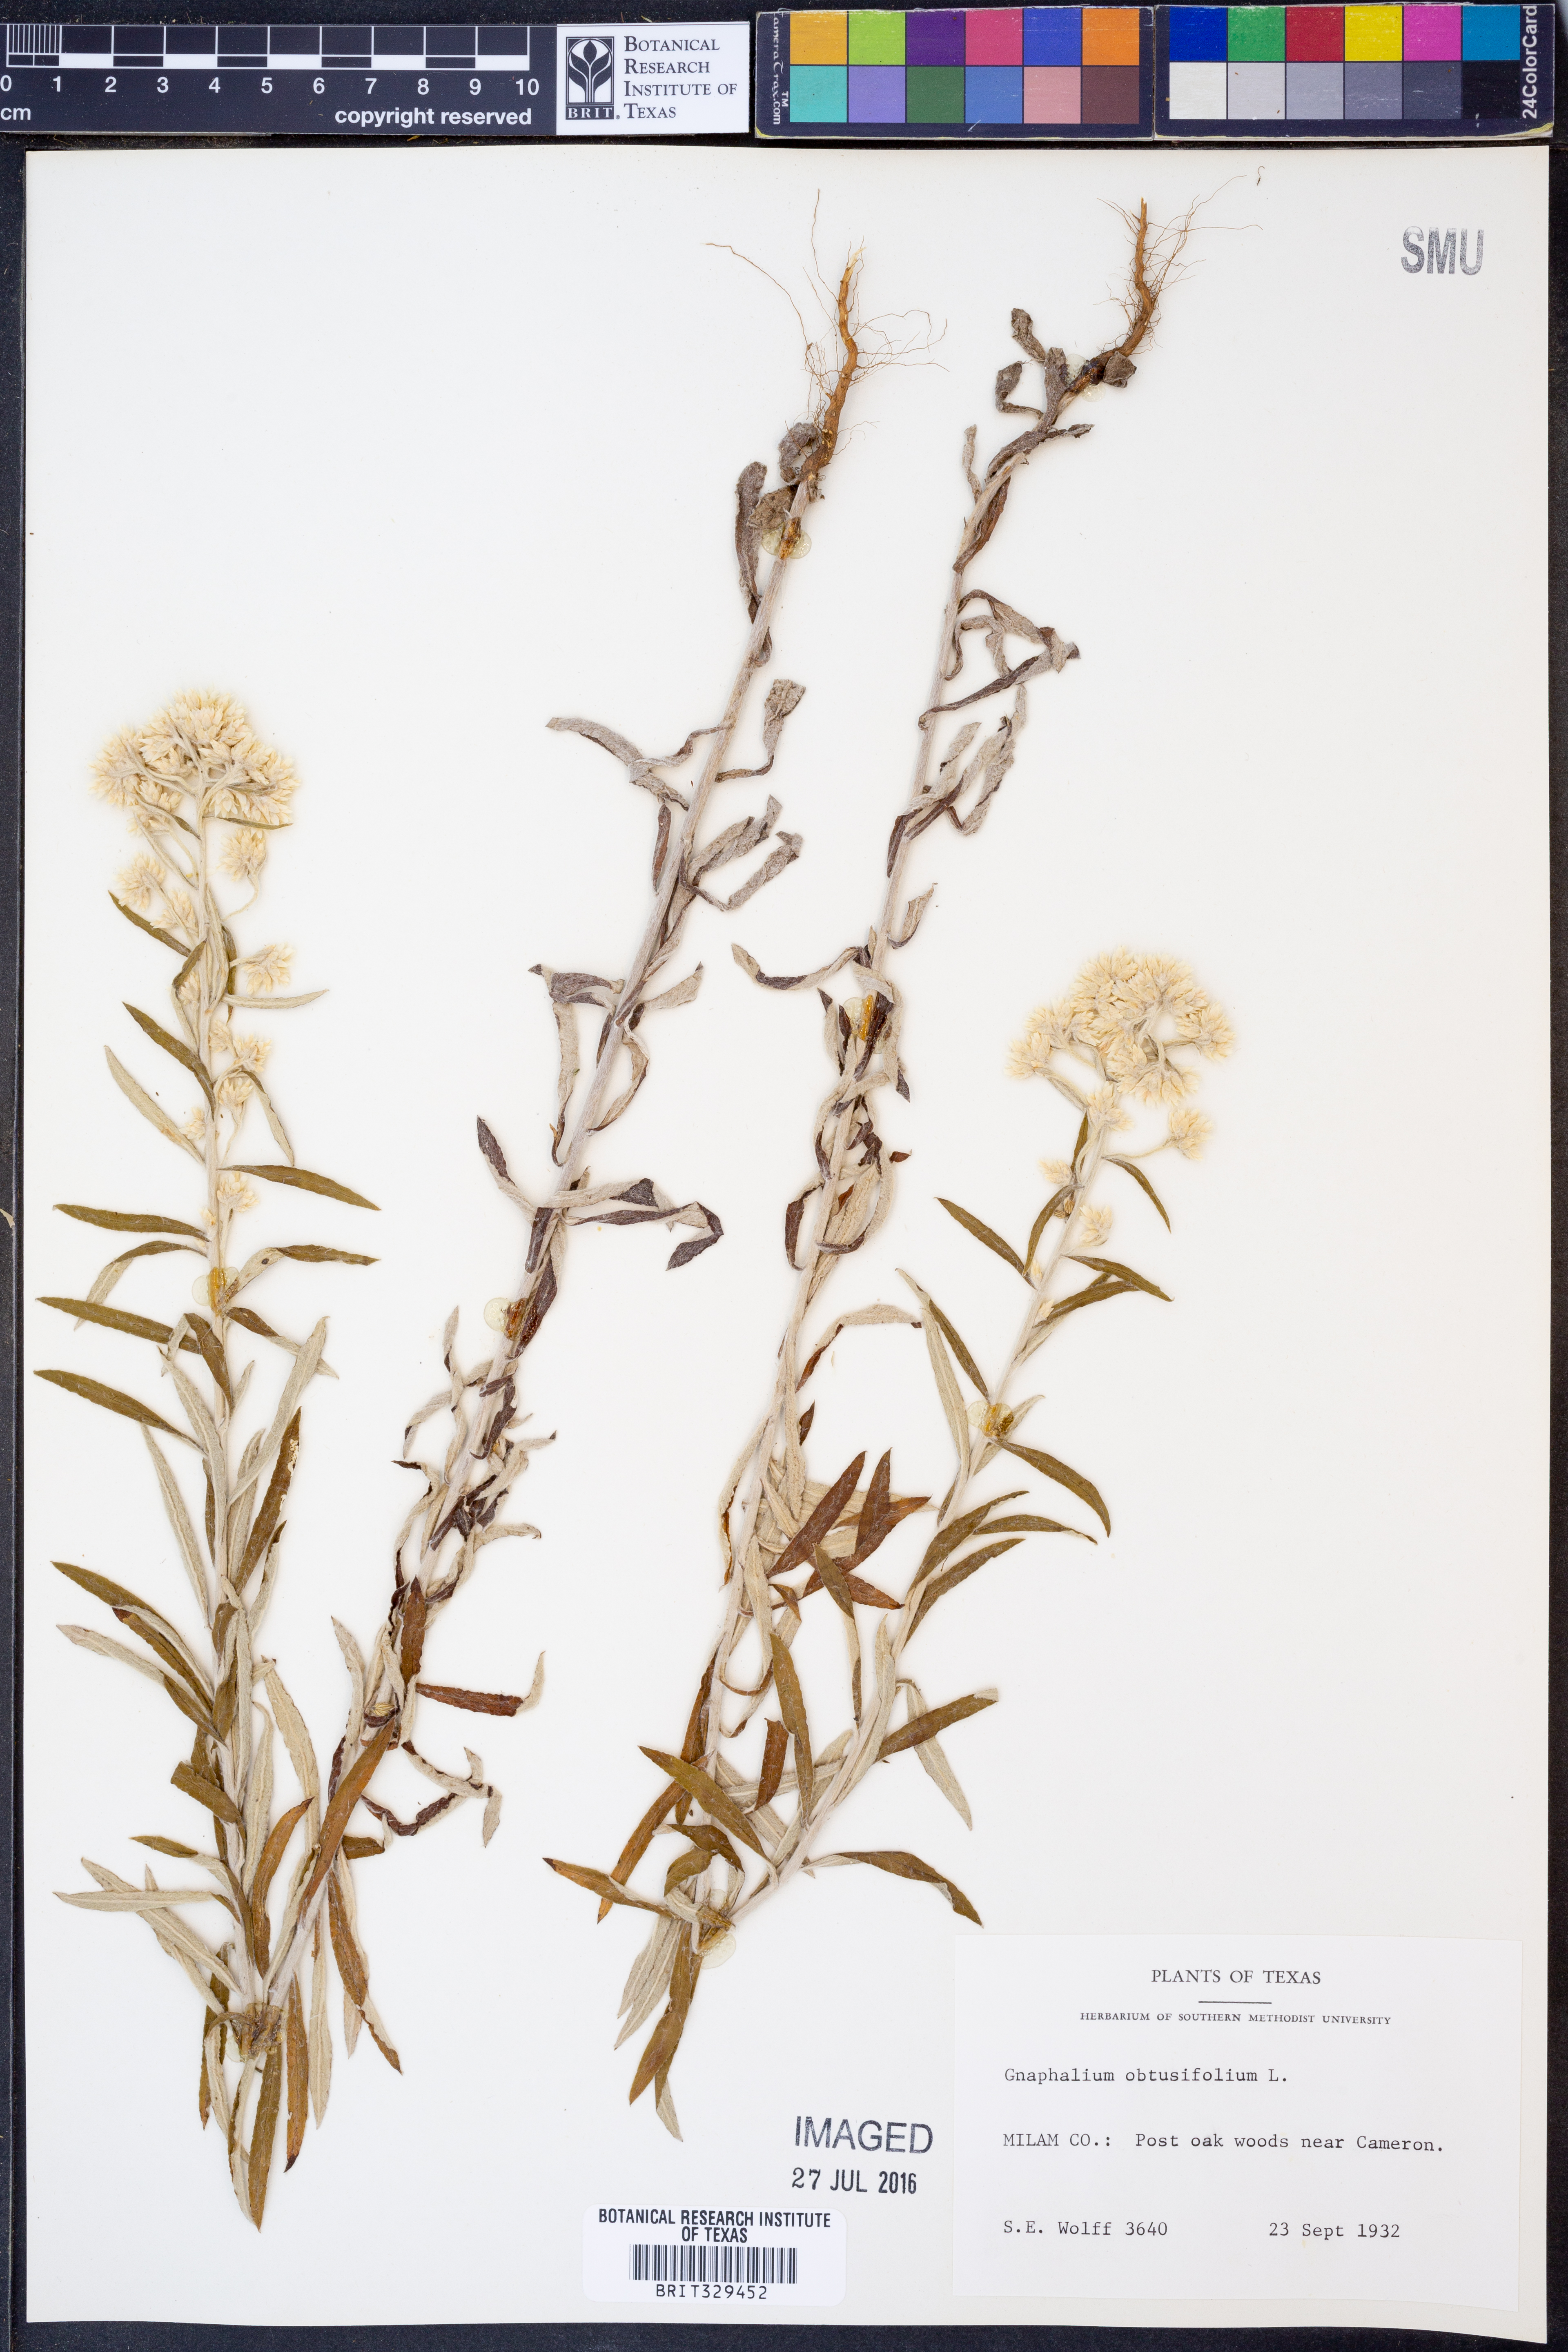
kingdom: Plantae
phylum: Tracheophyta
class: Magnoliopsida
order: Asterales
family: Asteraceae
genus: Pseudognaphalium
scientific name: Pseudognaphalium obtusifolium
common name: Eastern rabbit-tobacco
